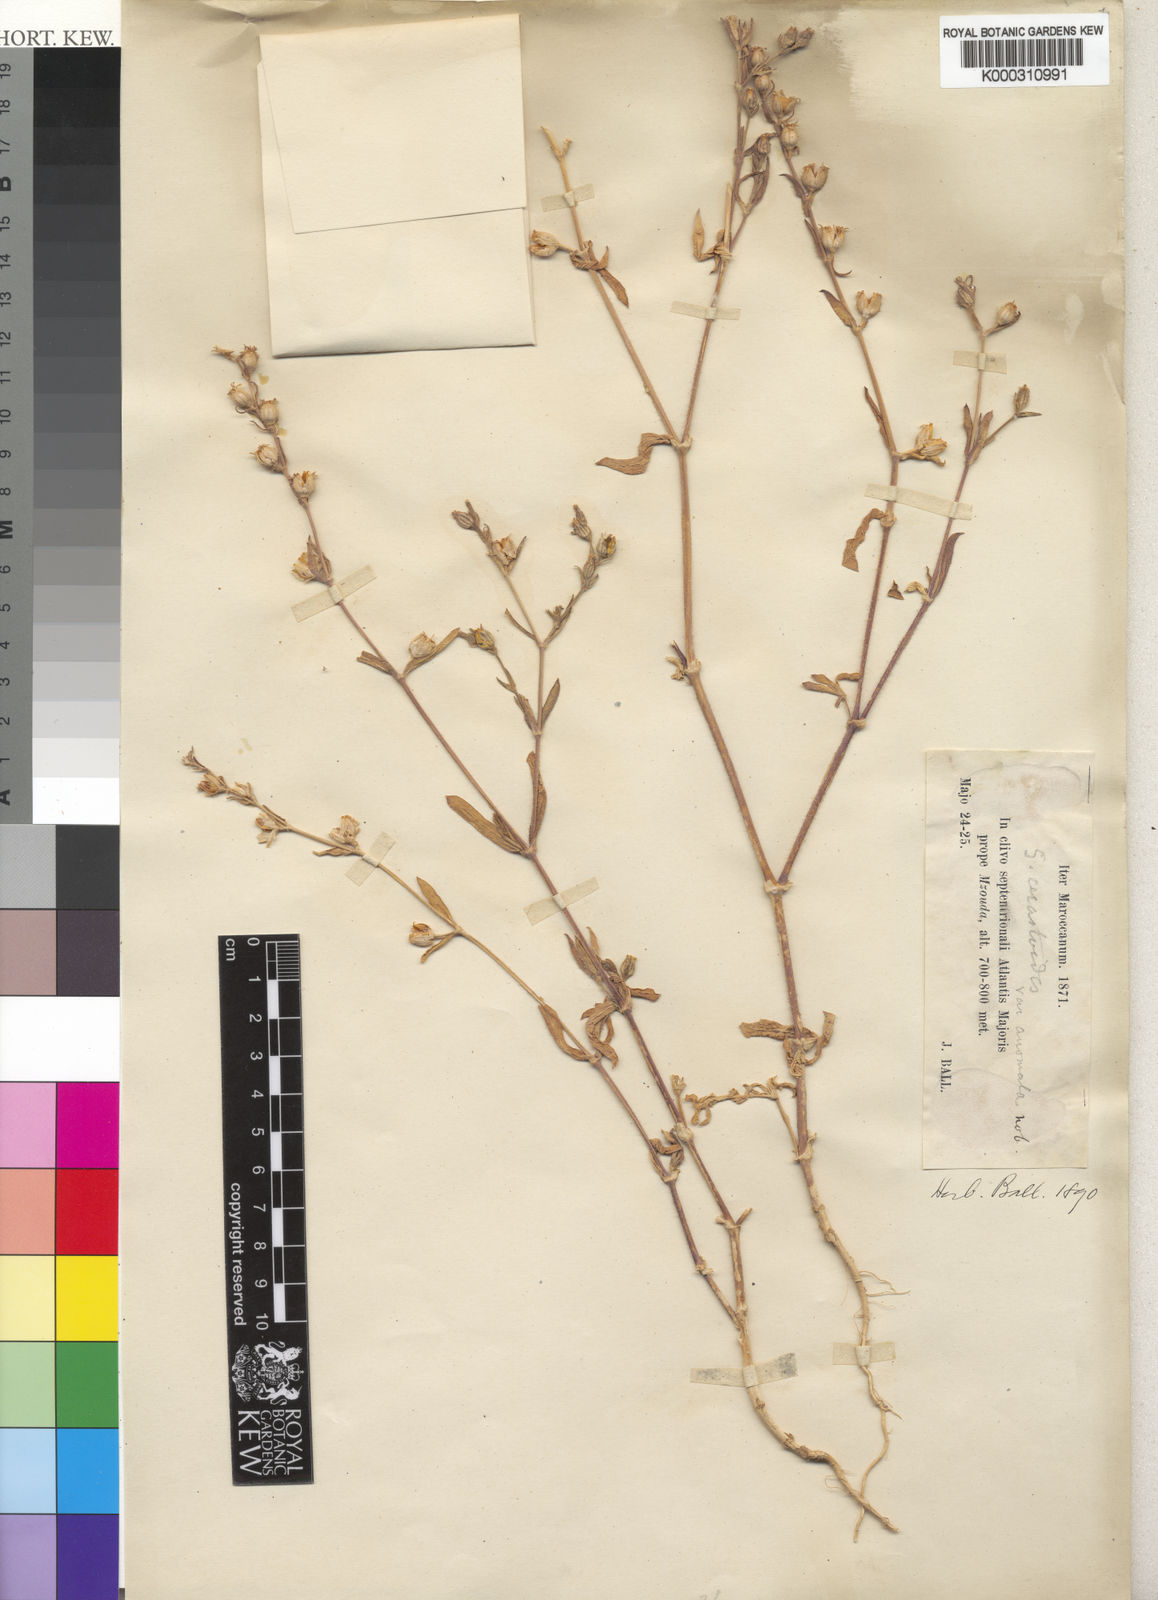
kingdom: Plantae
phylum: Tracheophyta
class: Magnoliopsida
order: Caryophyllales
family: Caryophyllaceae
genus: Silene
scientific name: Silene
